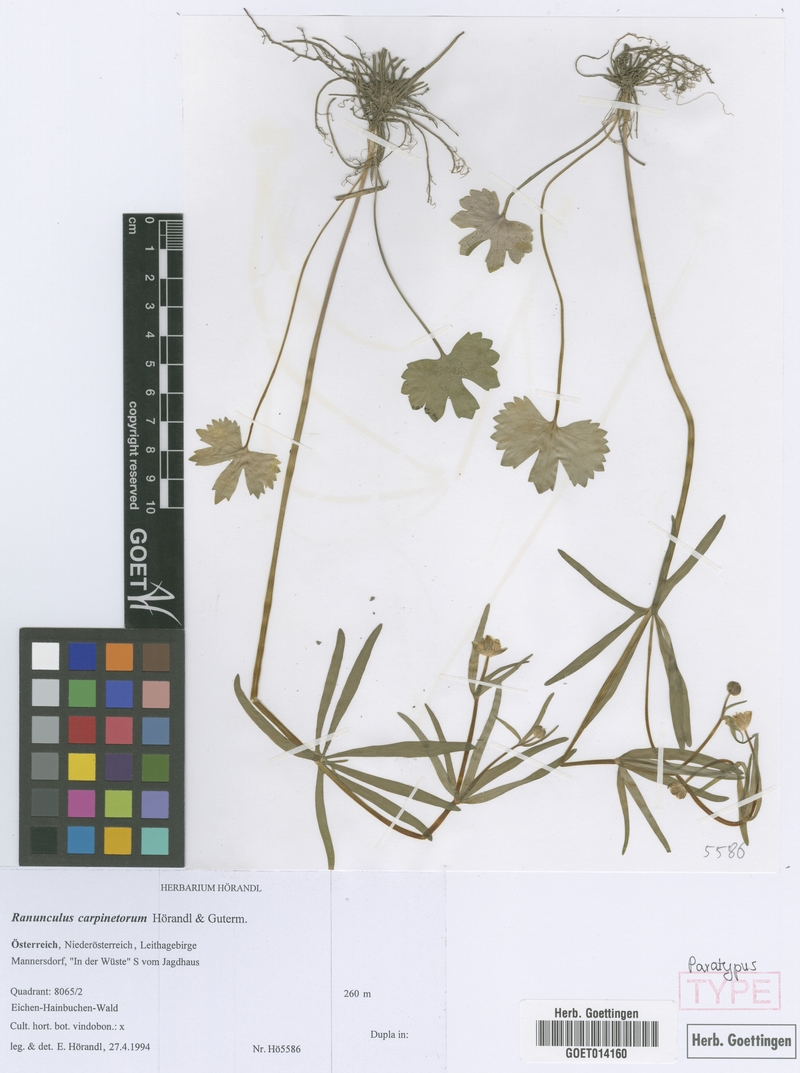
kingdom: Plantae
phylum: Tracheophyta
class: Magnoliopsida
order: Ranunculales
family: Ranunculaceae
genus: Ranunculus
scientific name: Ranunculus carpinetorum
